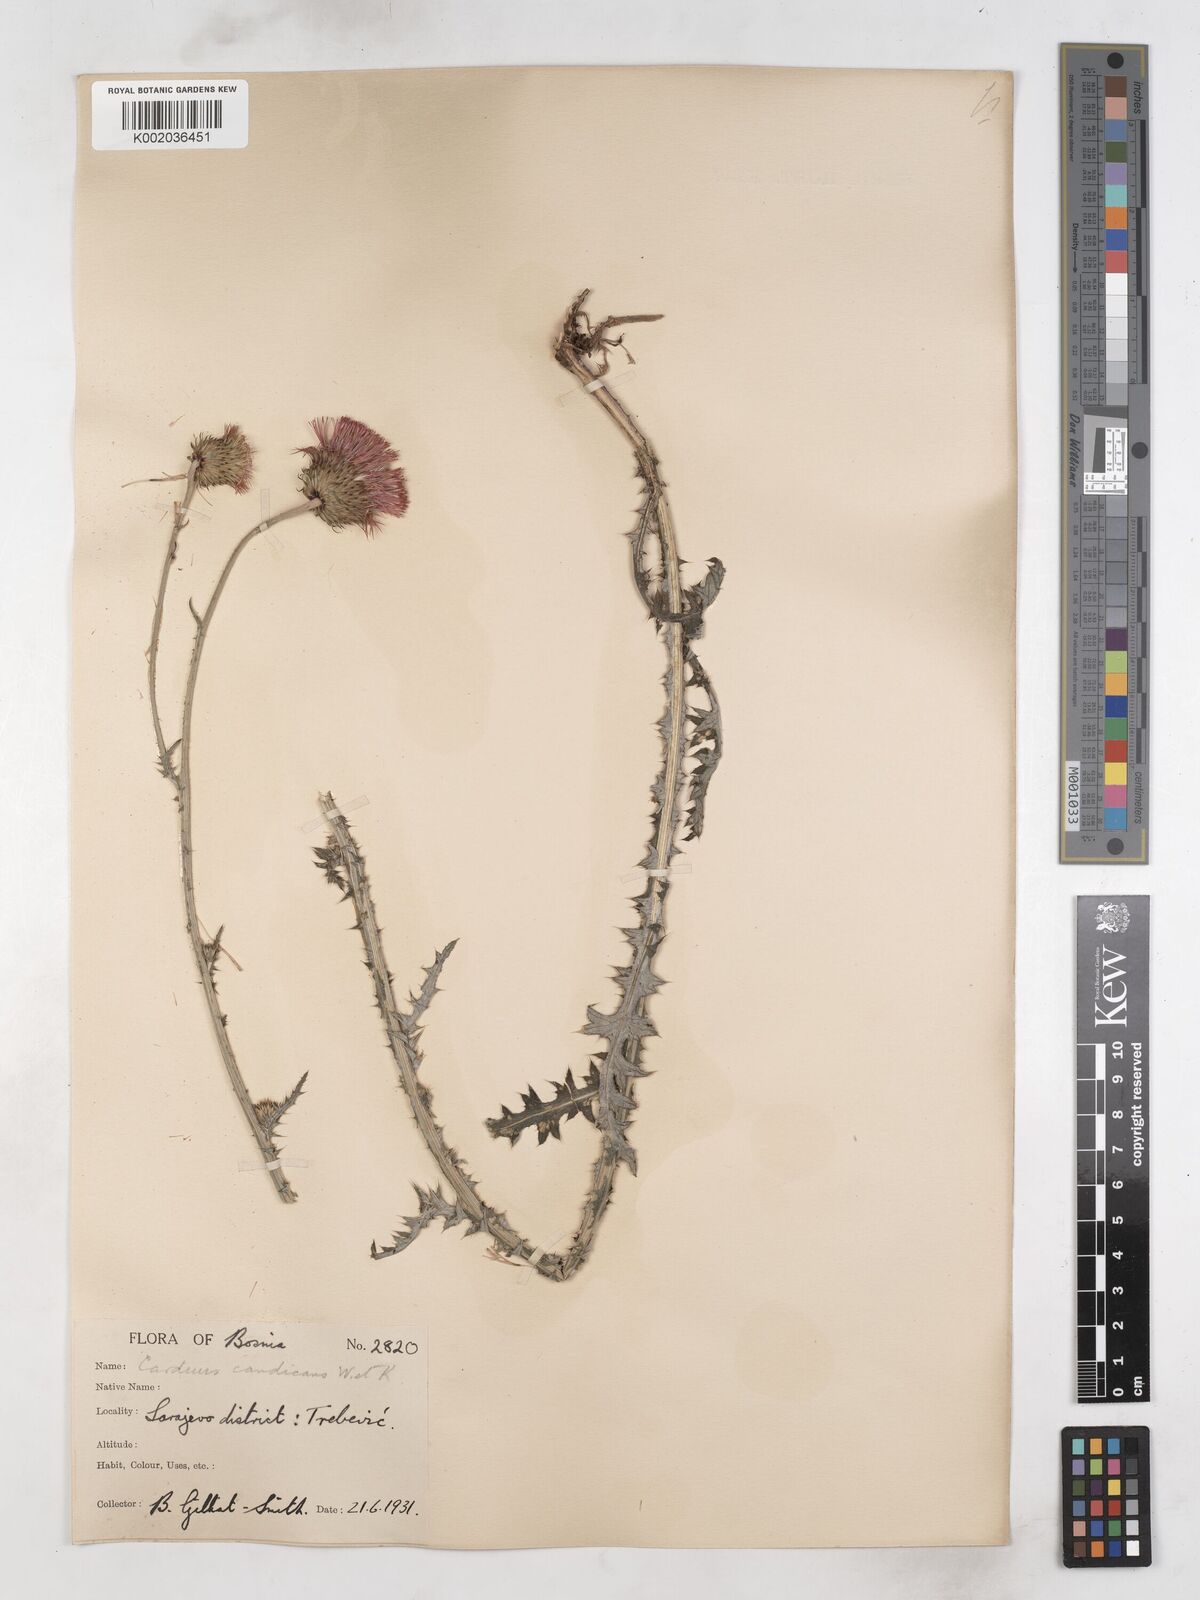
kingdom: Plantae
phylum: Tracheophyta
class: Magnoliopsida
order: Asterales
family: Asteraceae
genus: Carduus
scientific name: Carduus candicans
